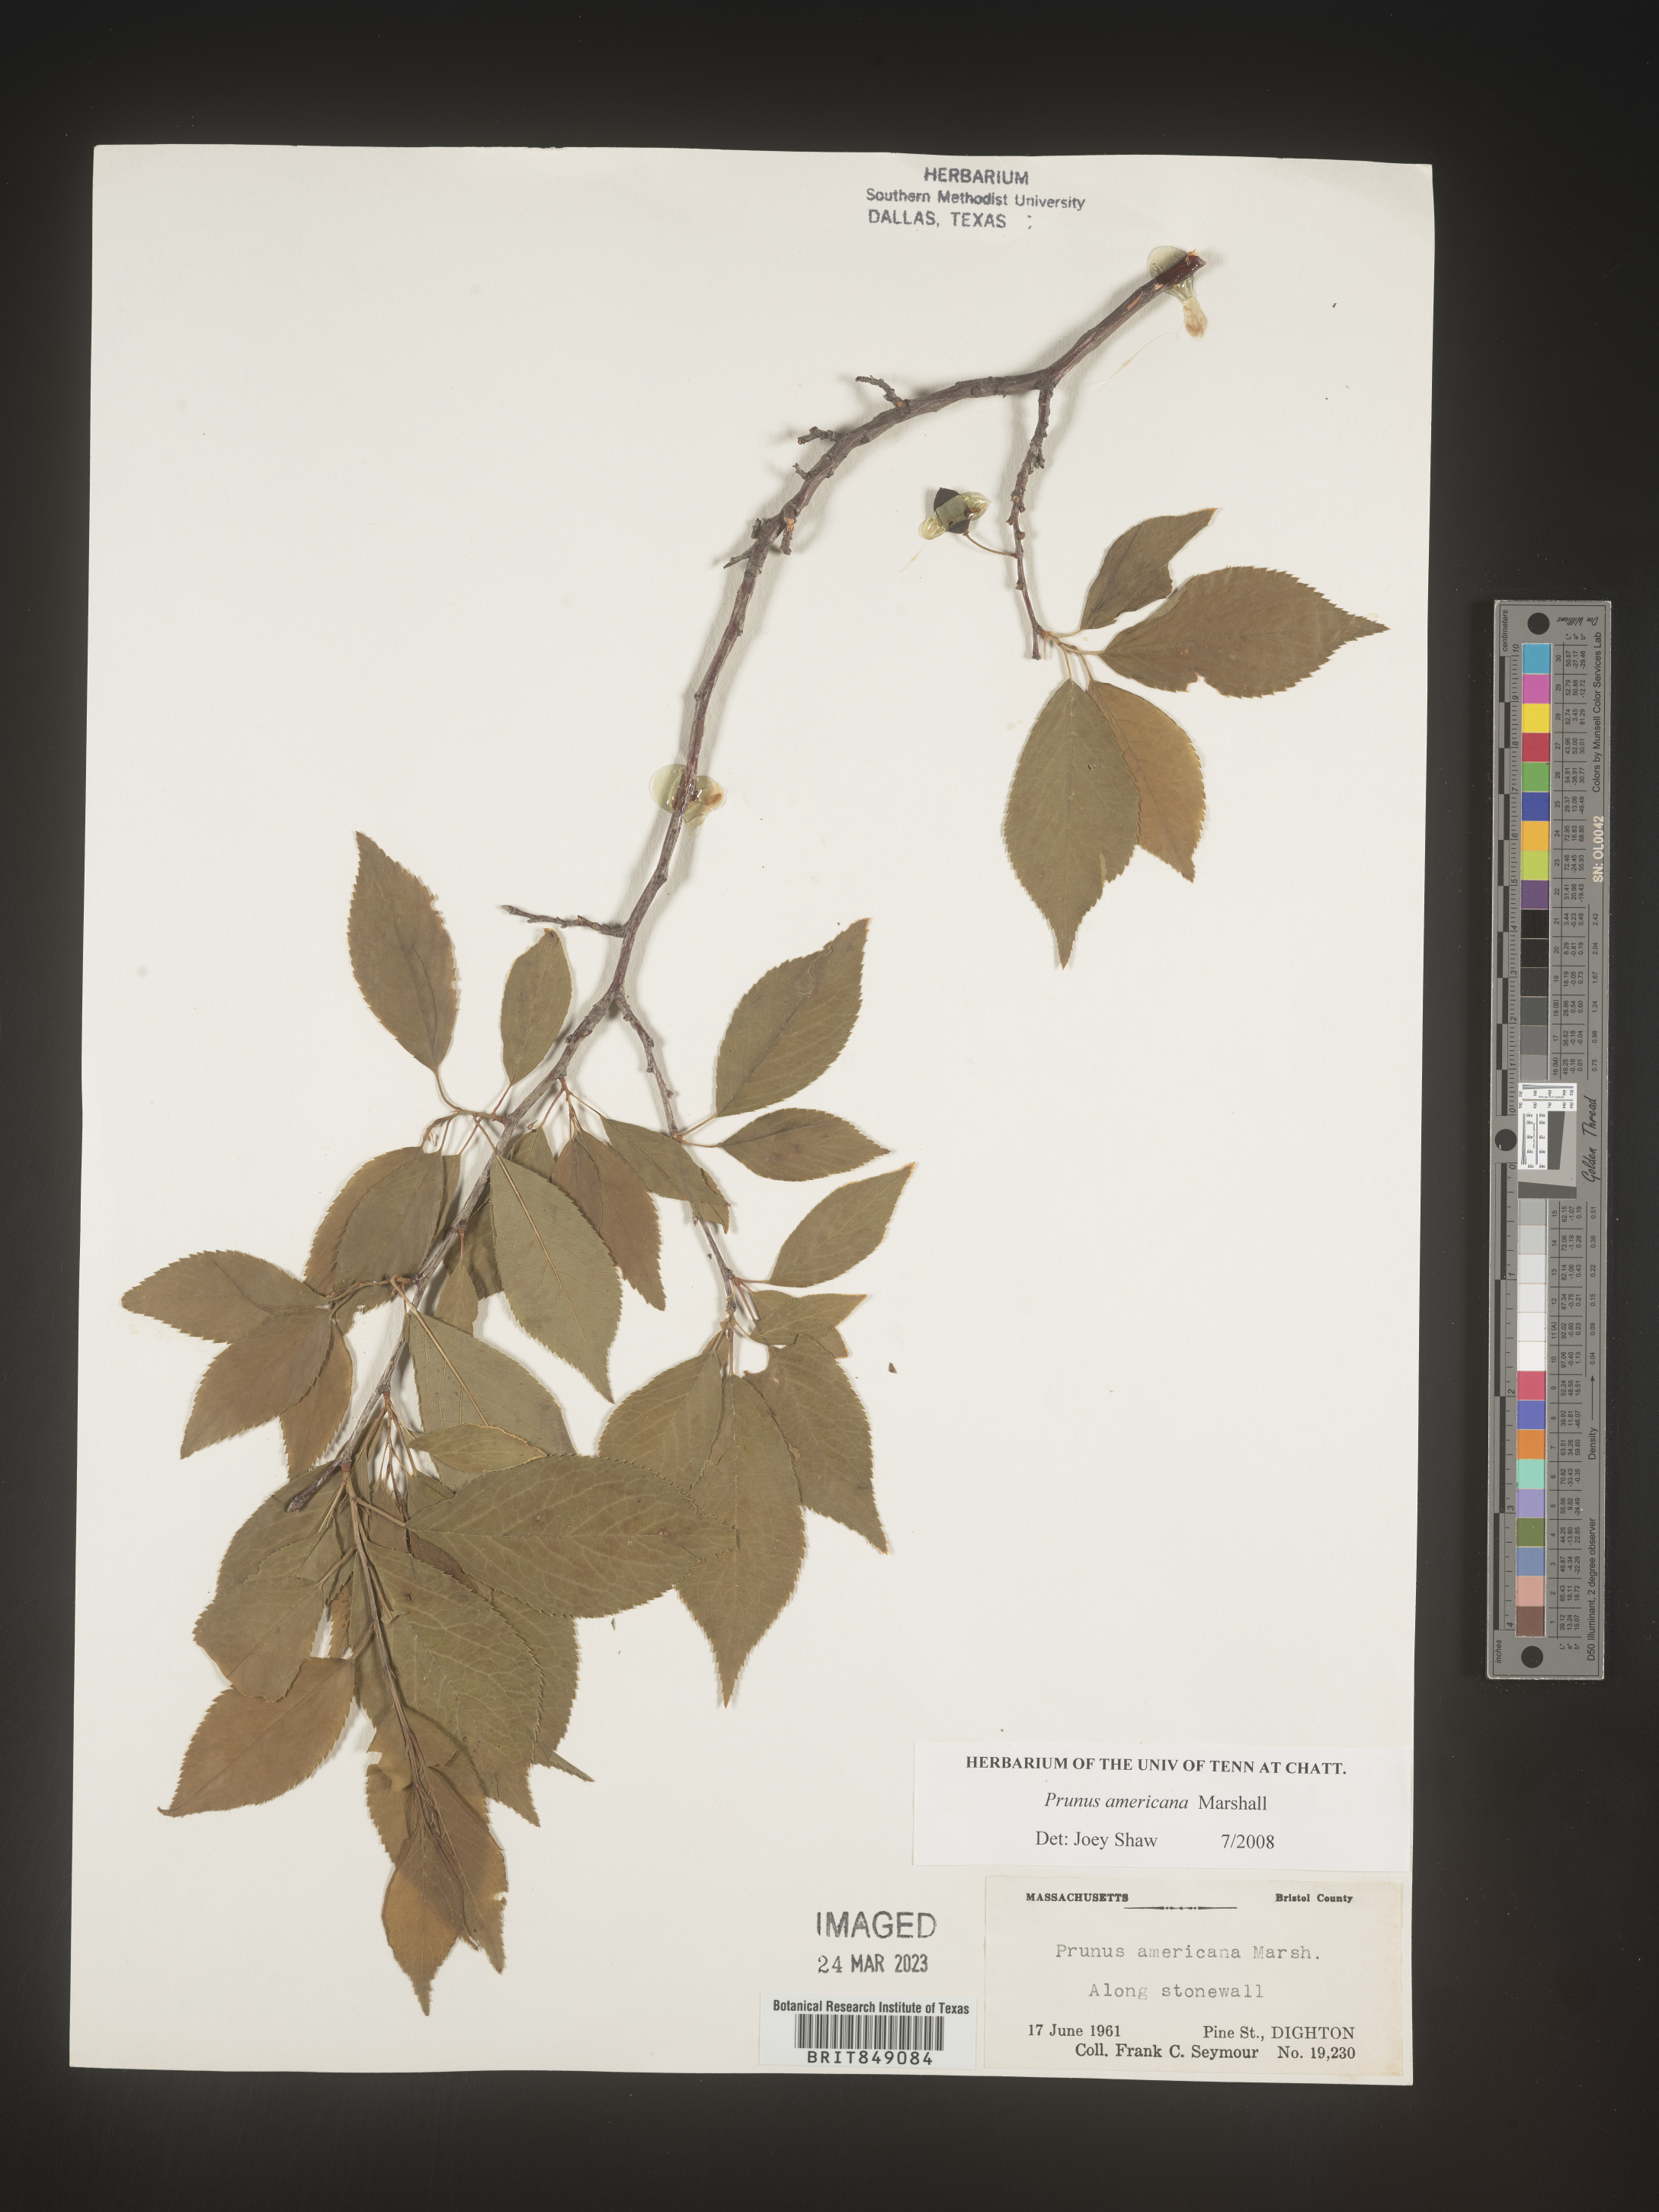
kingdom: Plantae
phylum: Tracheophyta
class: Magnoliopsida
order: Rosales
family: Rosaceae
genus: Prunus
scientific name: Prunus americana
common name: American plum
